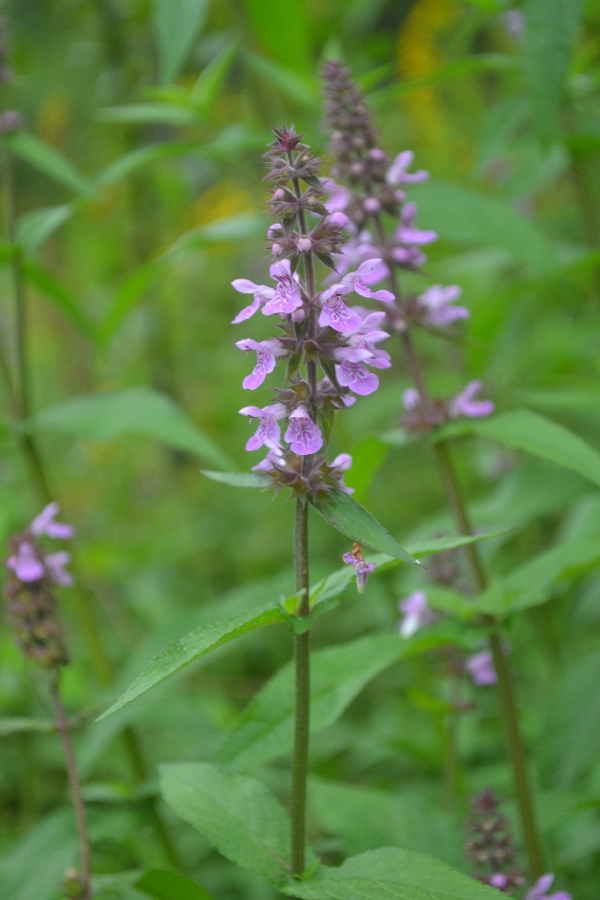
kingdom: Plantae
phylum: Tracheophyta
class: Magnoliopsida
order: Lamiales
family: Lamiaceae
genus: Stachys
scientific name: Stachys palustris
